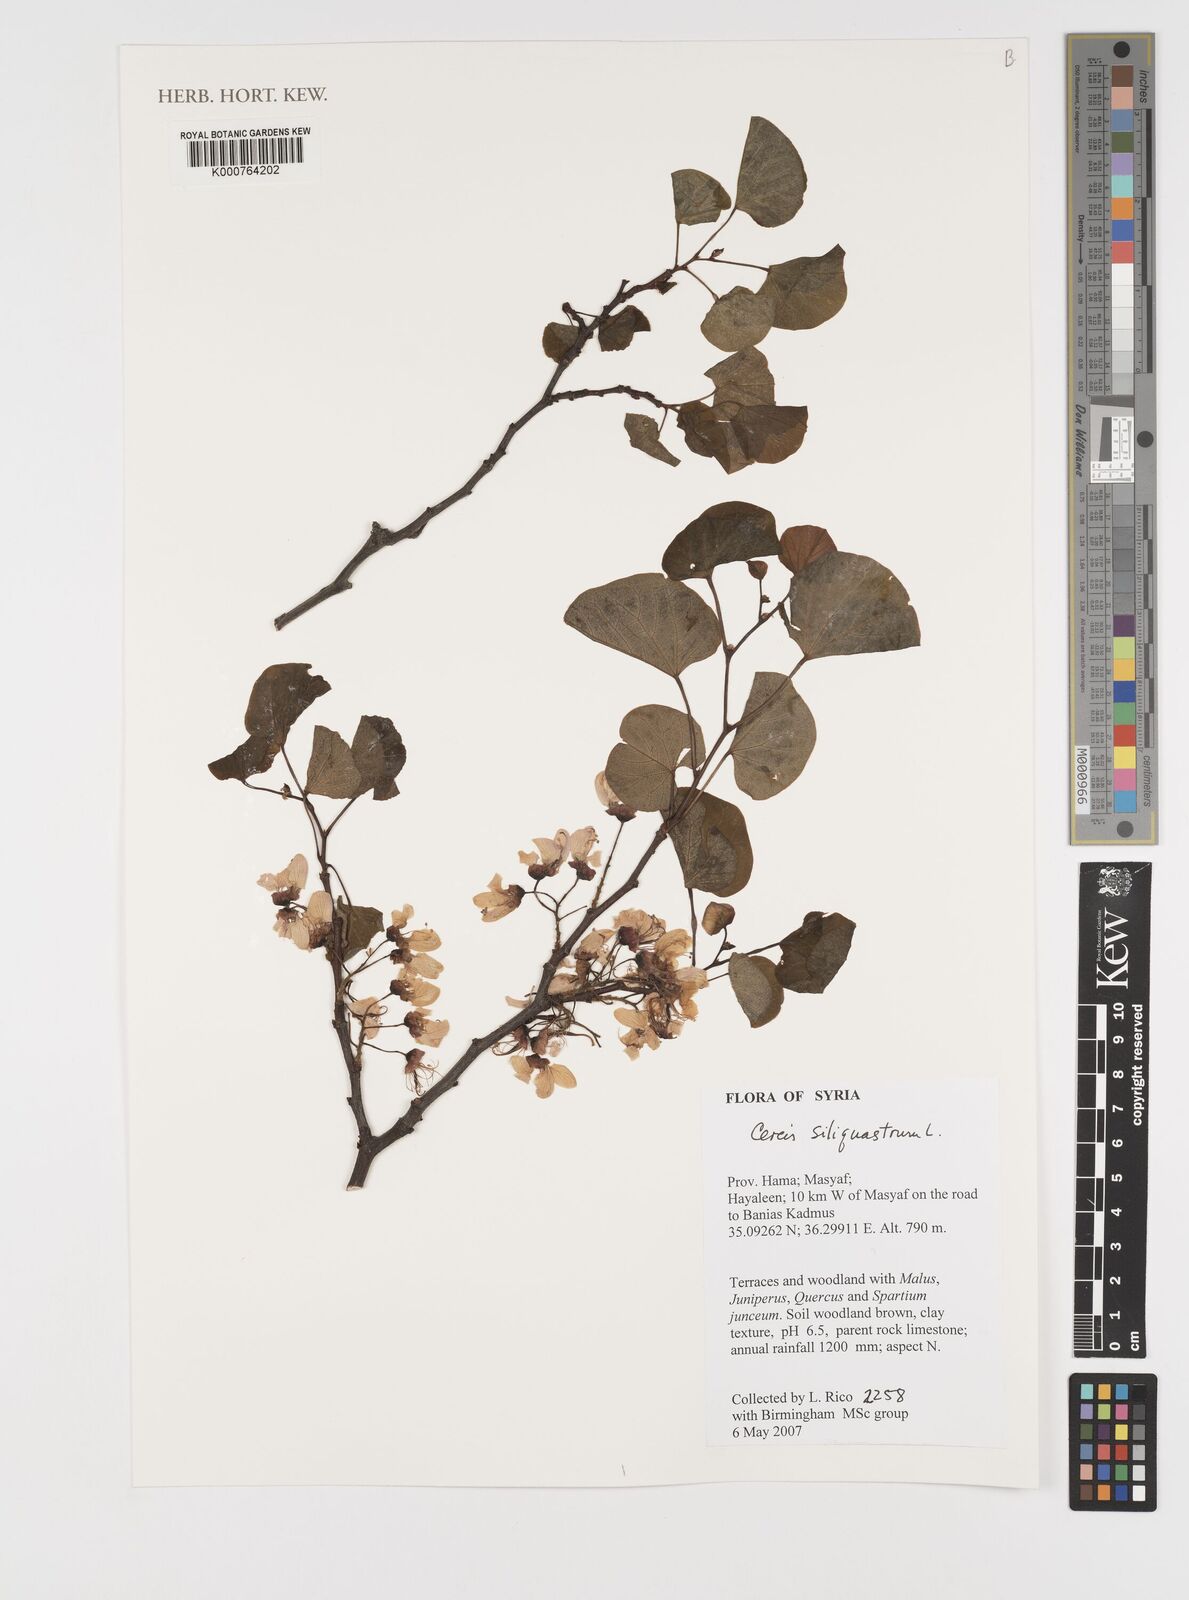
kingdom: Plantae
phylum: Tracheophyta
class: Magnoliopsida
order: Fabales
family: Fabaceae
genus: Cercis
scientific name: Cercis
